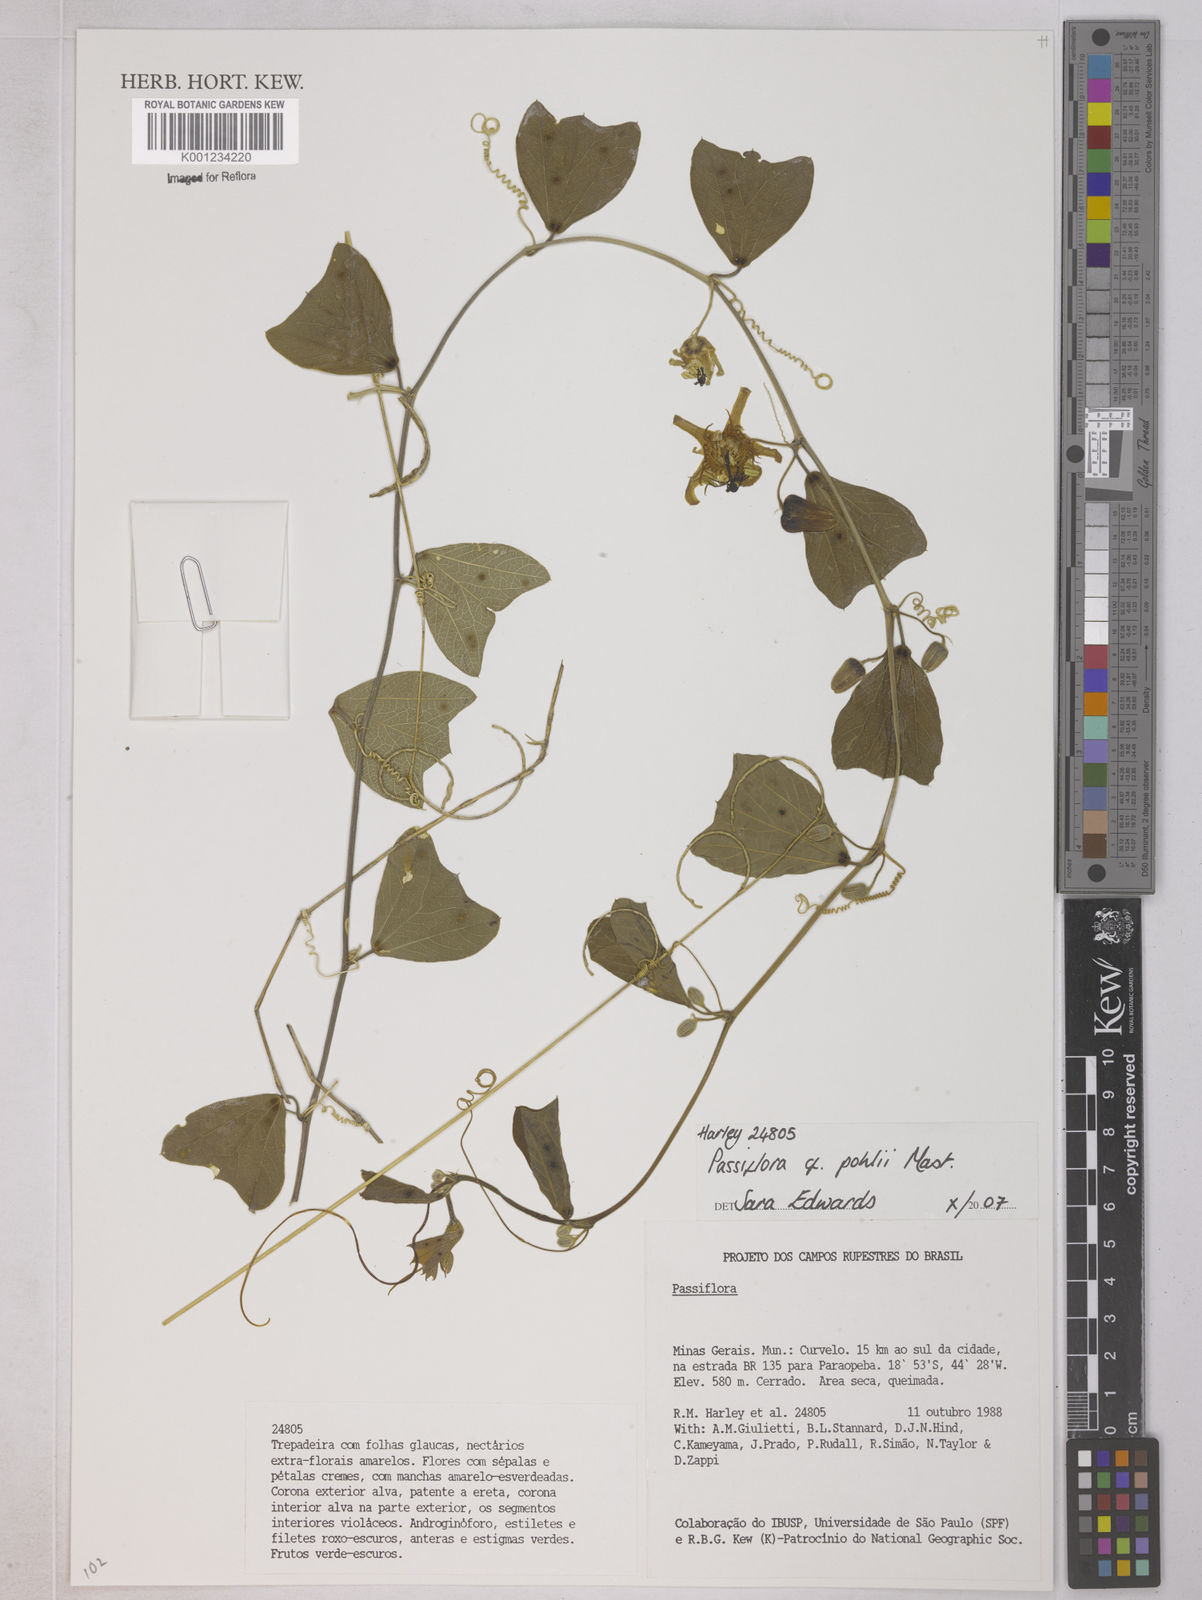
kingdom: Plantae
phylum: Tracheophyta
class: Magnoliopsida
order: Malpighiales
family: Passifloraceae
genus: Passiflora
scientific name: Passiflora pohlii
